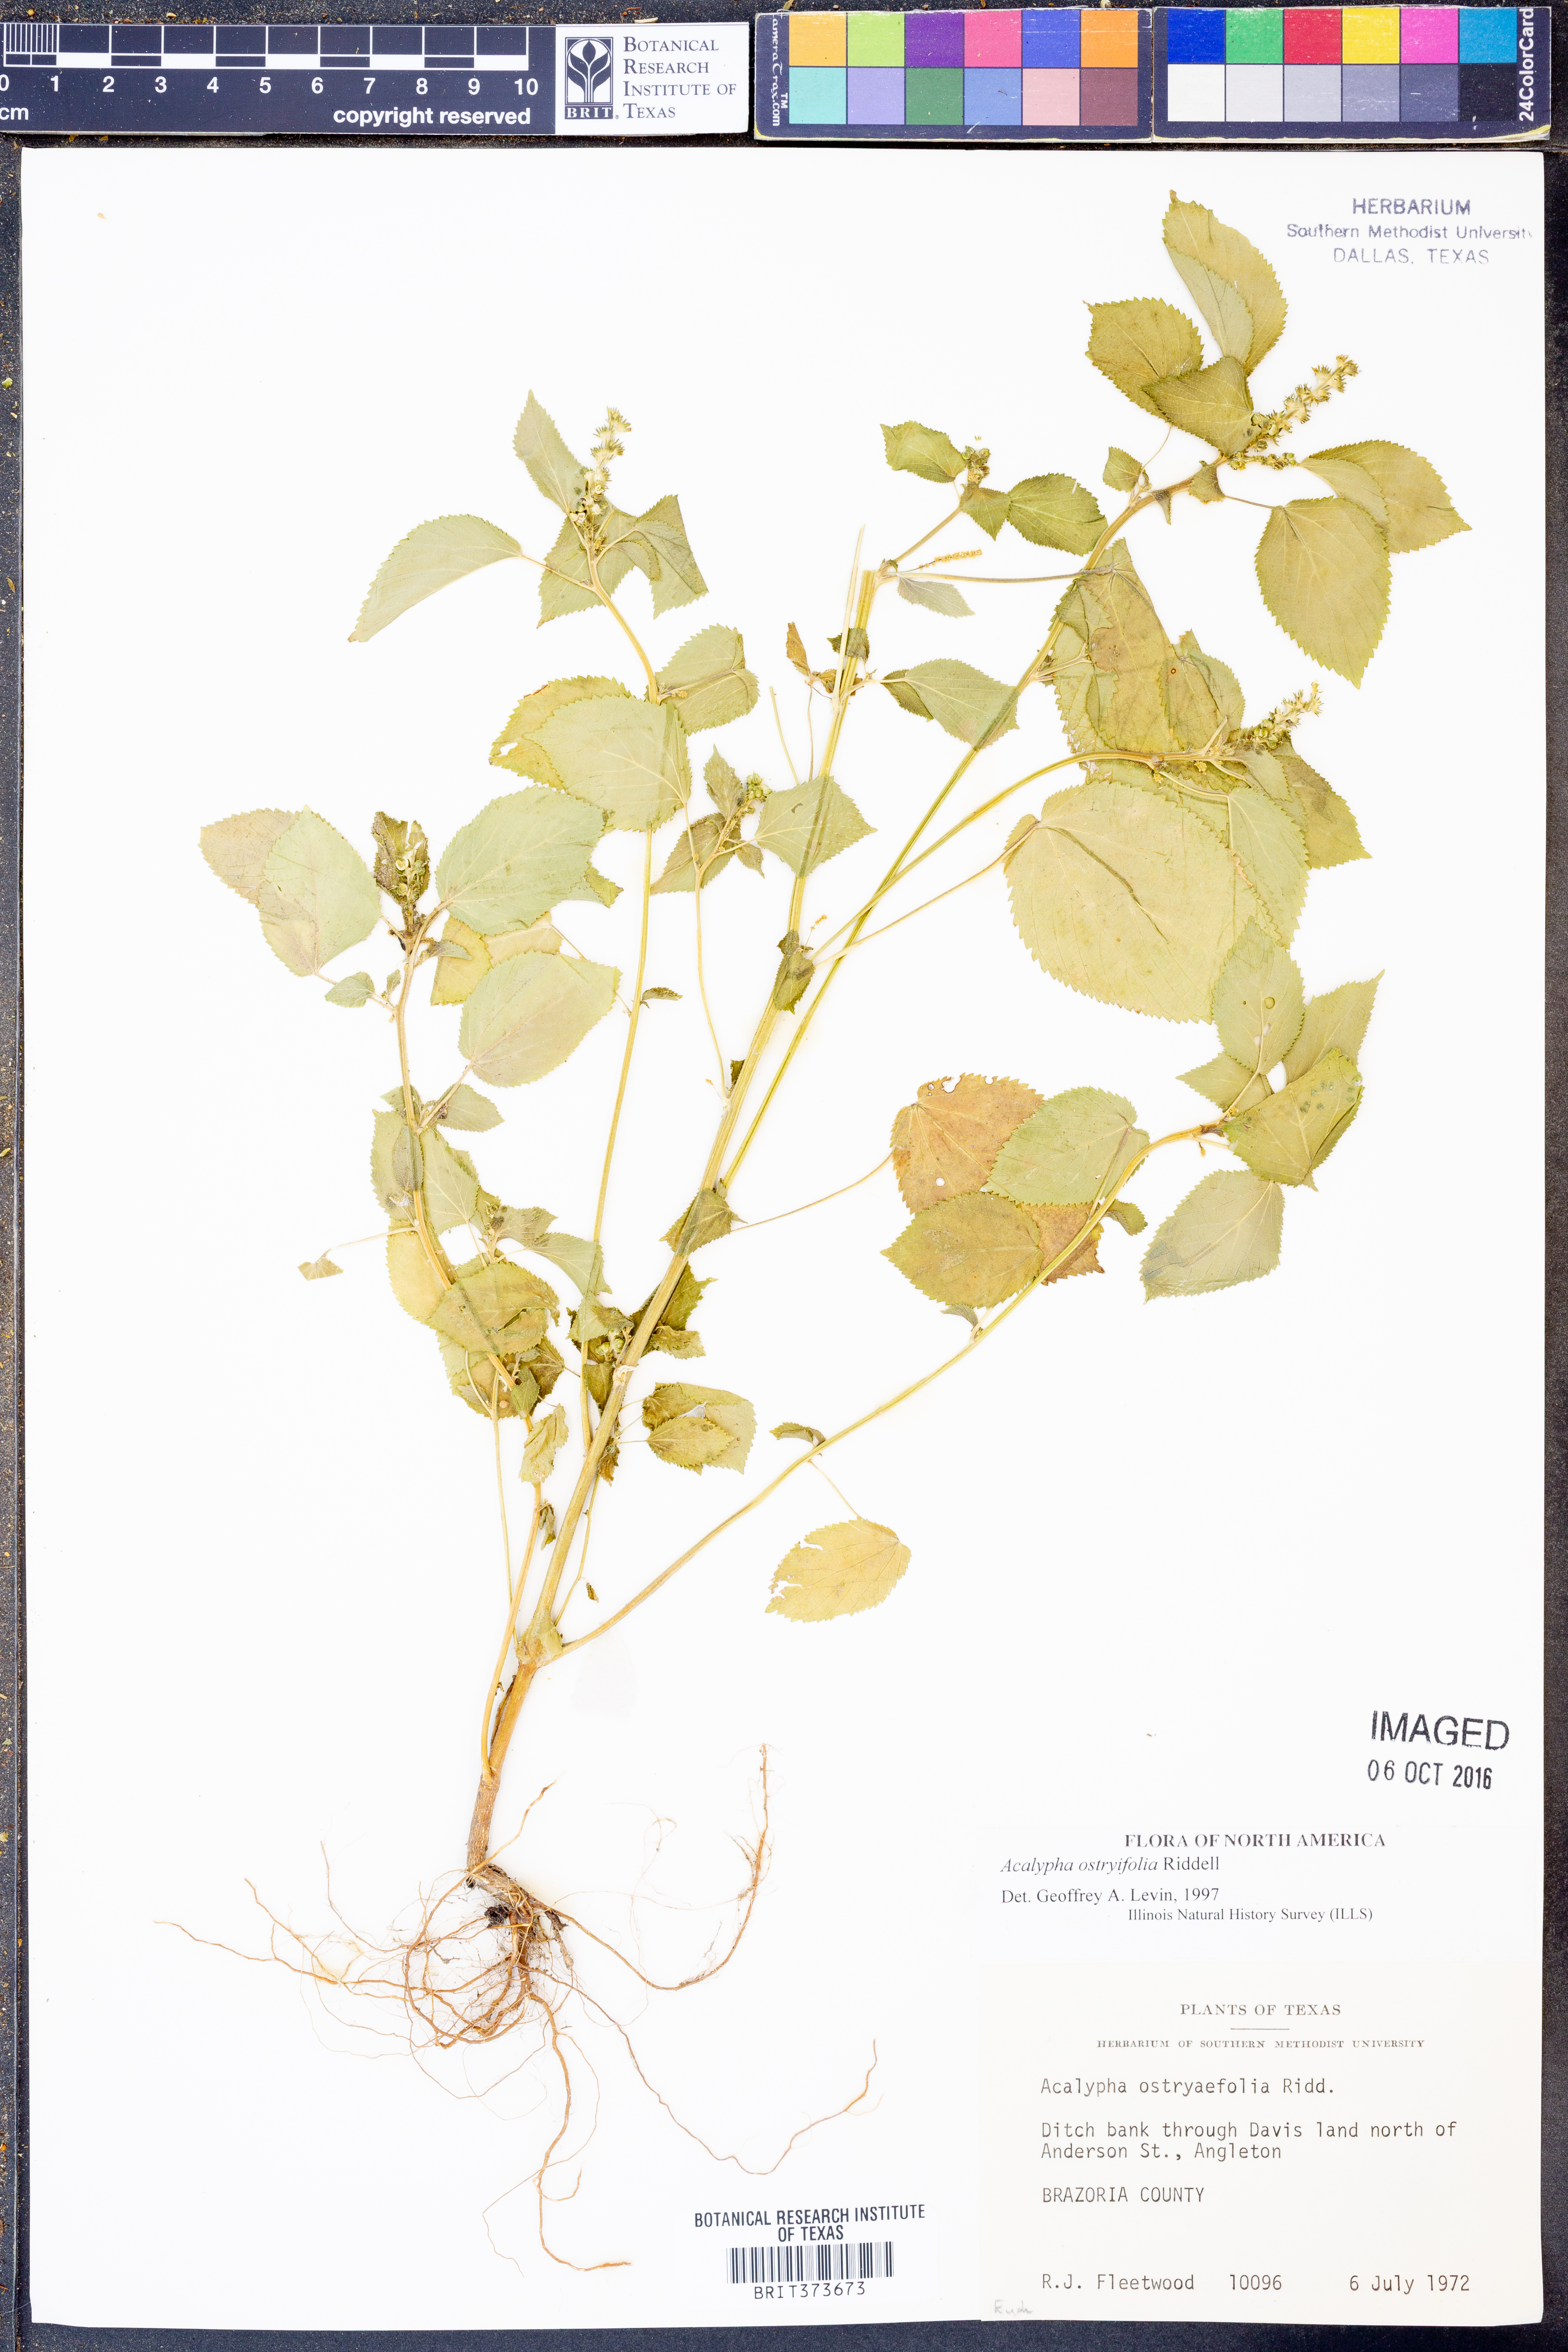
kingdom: Plantae
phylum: Tracheophyta
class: Magnoliopsida
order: Malpighiales
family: Euphorbiaceae
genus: Acalypha
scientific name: Acalypha persimilis
